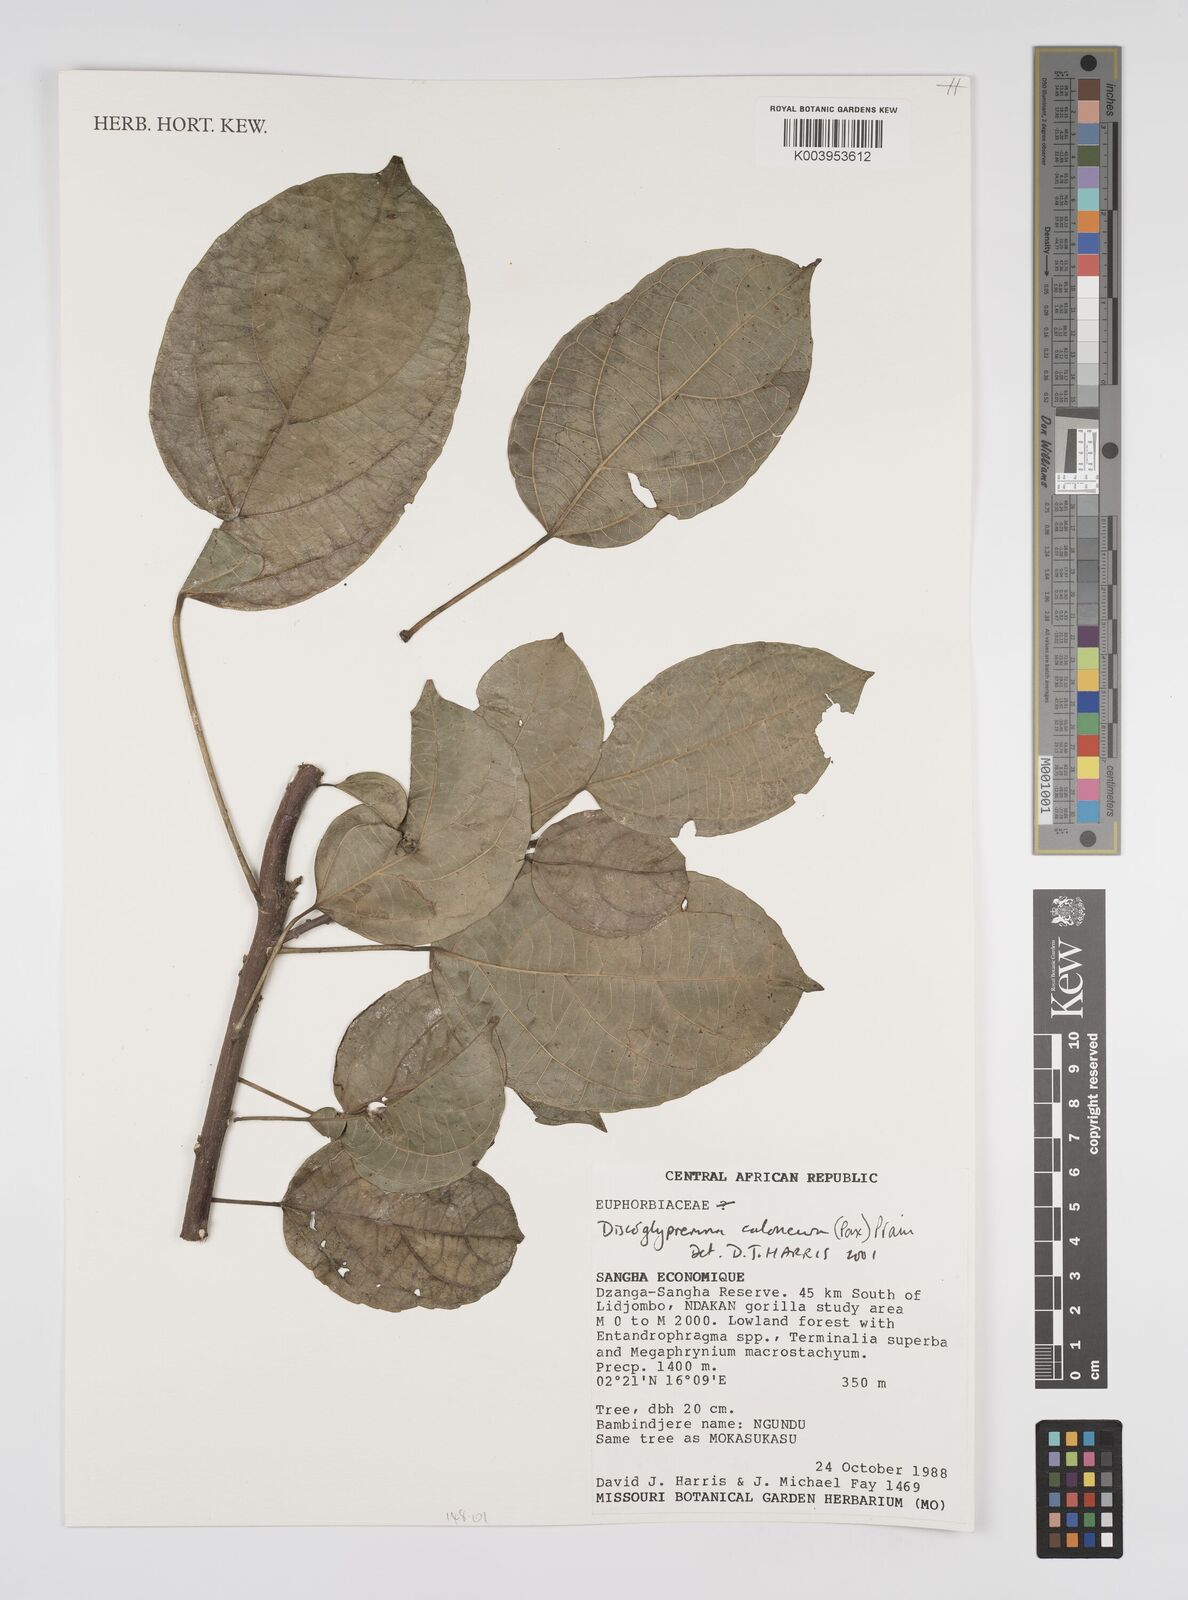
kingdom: Plantae
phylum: Tracheophyta
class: Magnoliopsida
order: Malpighiales
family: Euphorbiaceae
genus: Discoglypremna
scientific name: Discoglypremna caloneura
